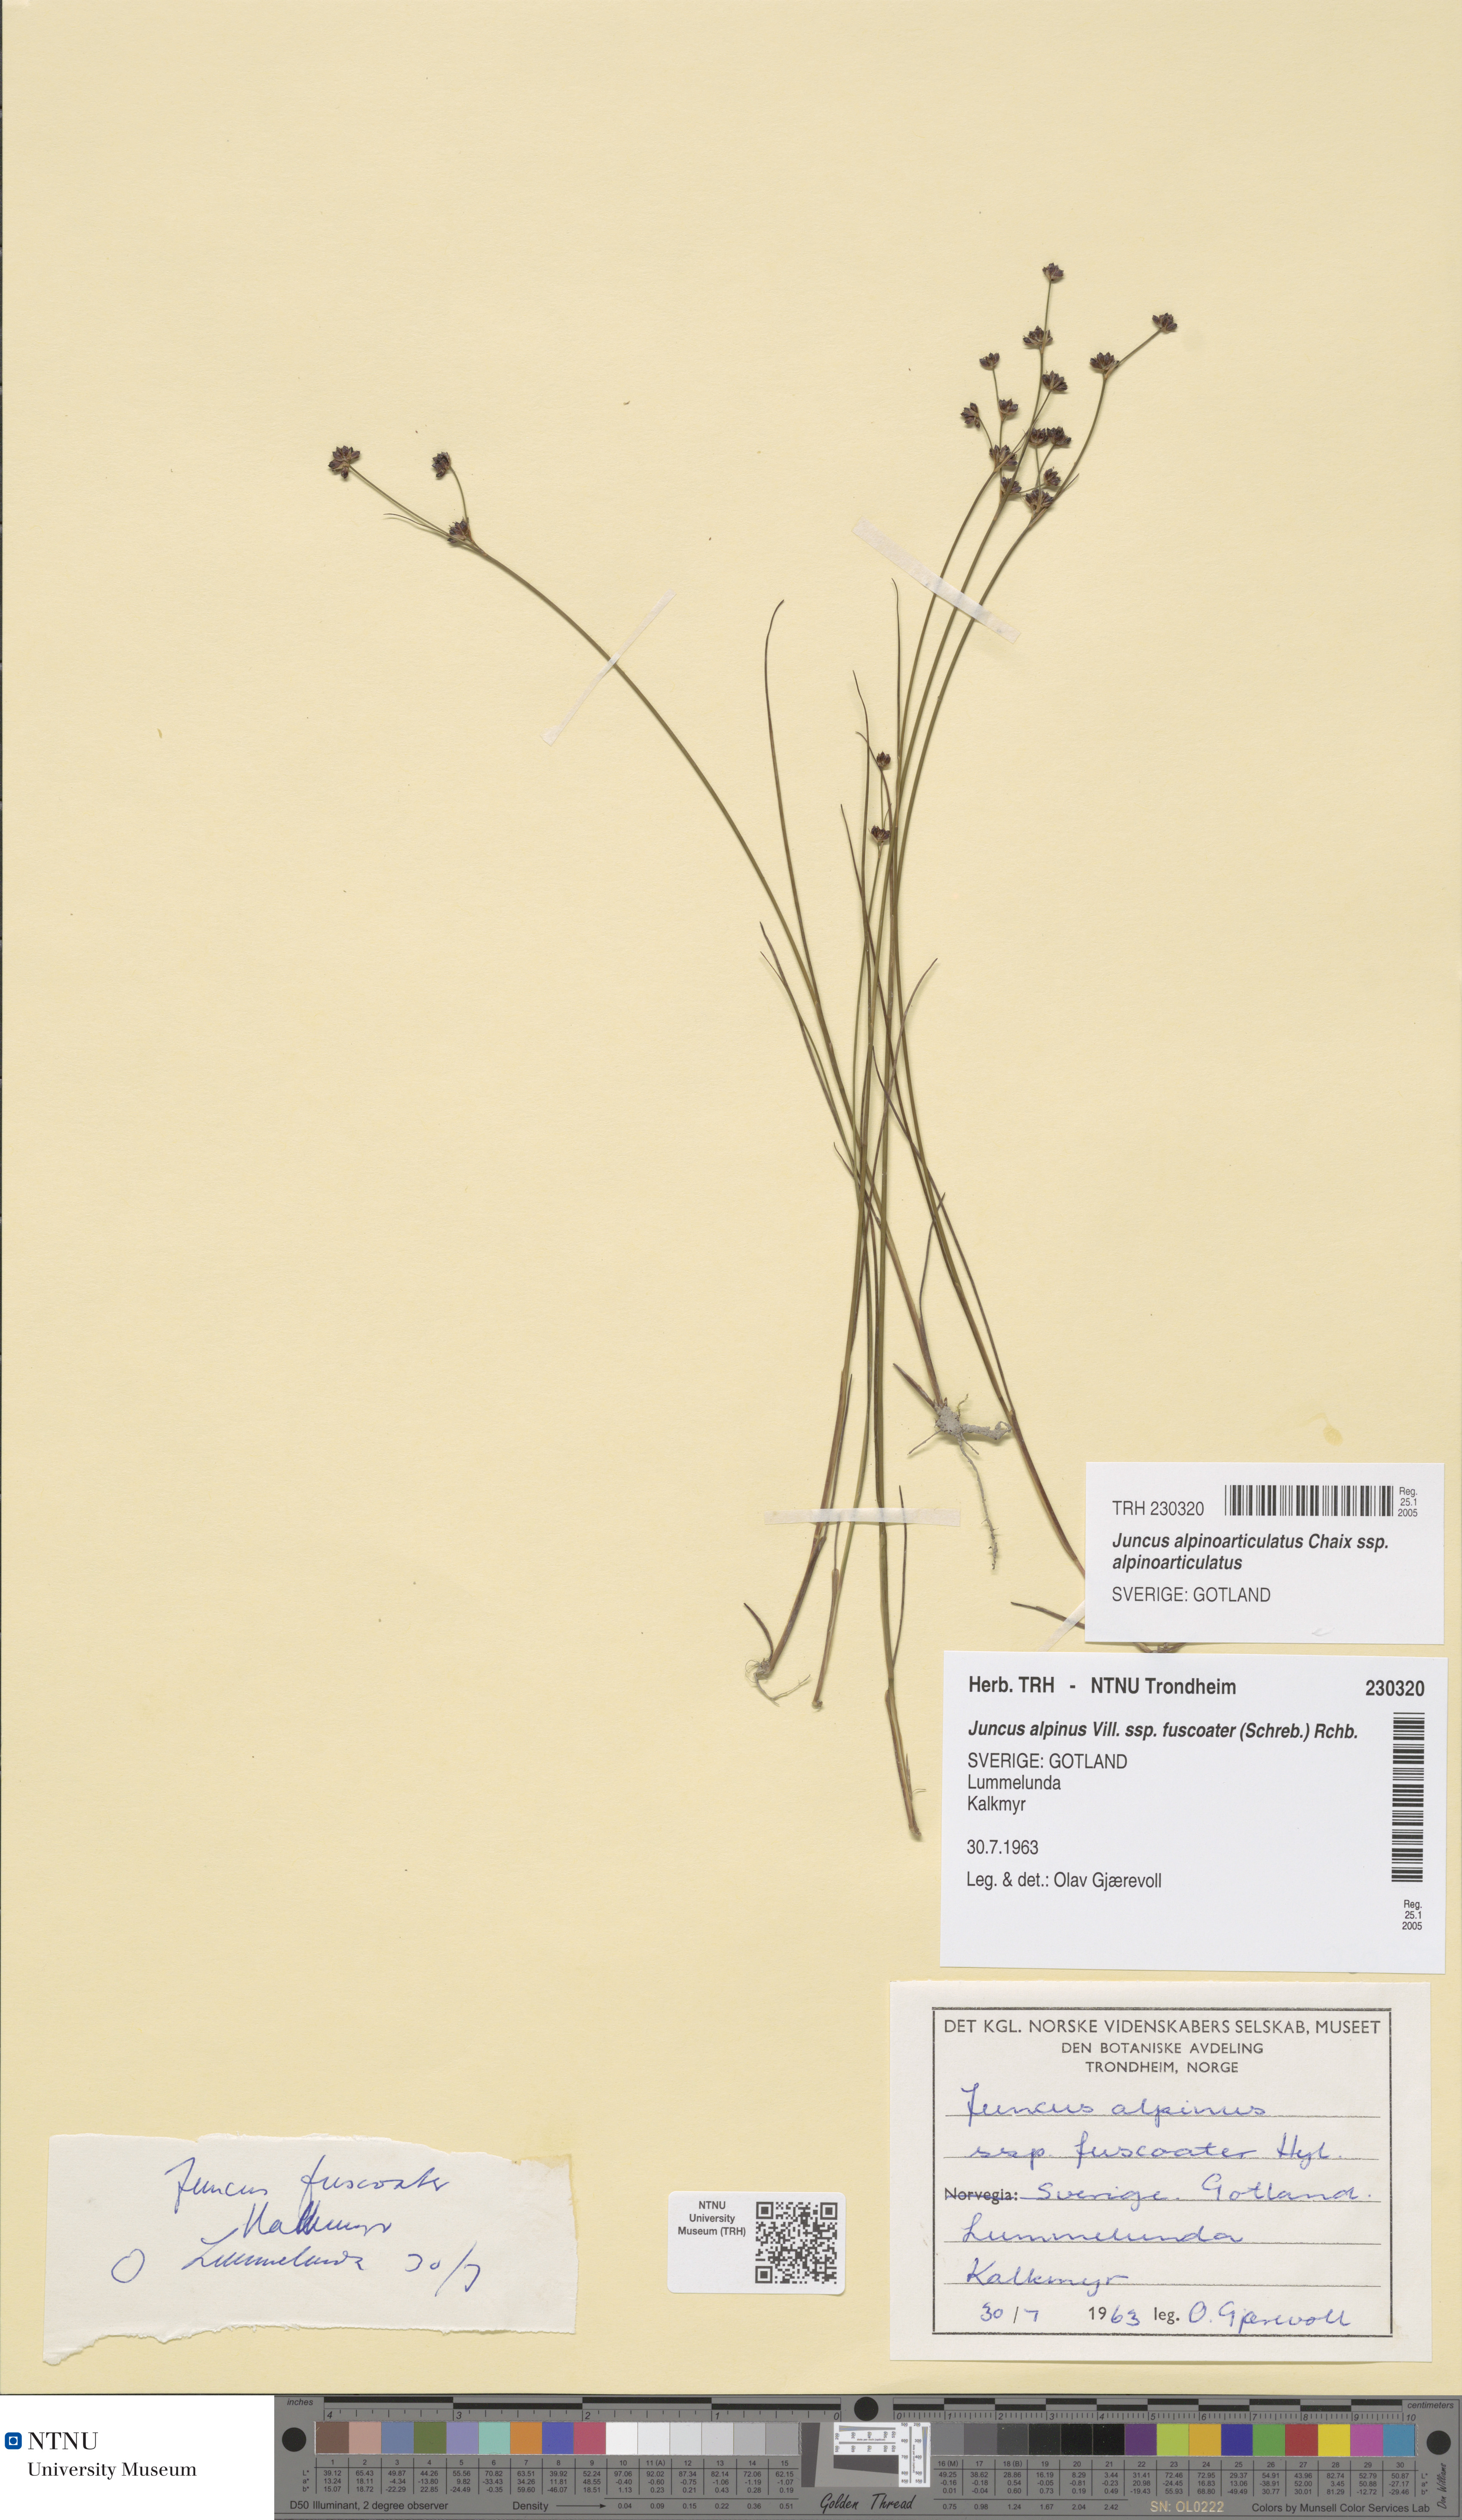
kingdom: Plantae
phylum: Tracheophyta
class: Liliopsida
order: Poales
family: Juncaceae
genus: Juncus
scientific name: Juncus alpinoarticulatus
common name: Alpine rush
